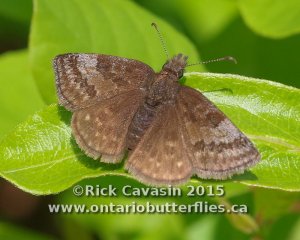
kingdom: Animalia
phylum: Arthropoda
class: Insecta
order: Lepidoptera
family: Hesperiidae
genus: Erynnis
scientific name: Erynnis icelus
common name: Dreamy Duskywing
